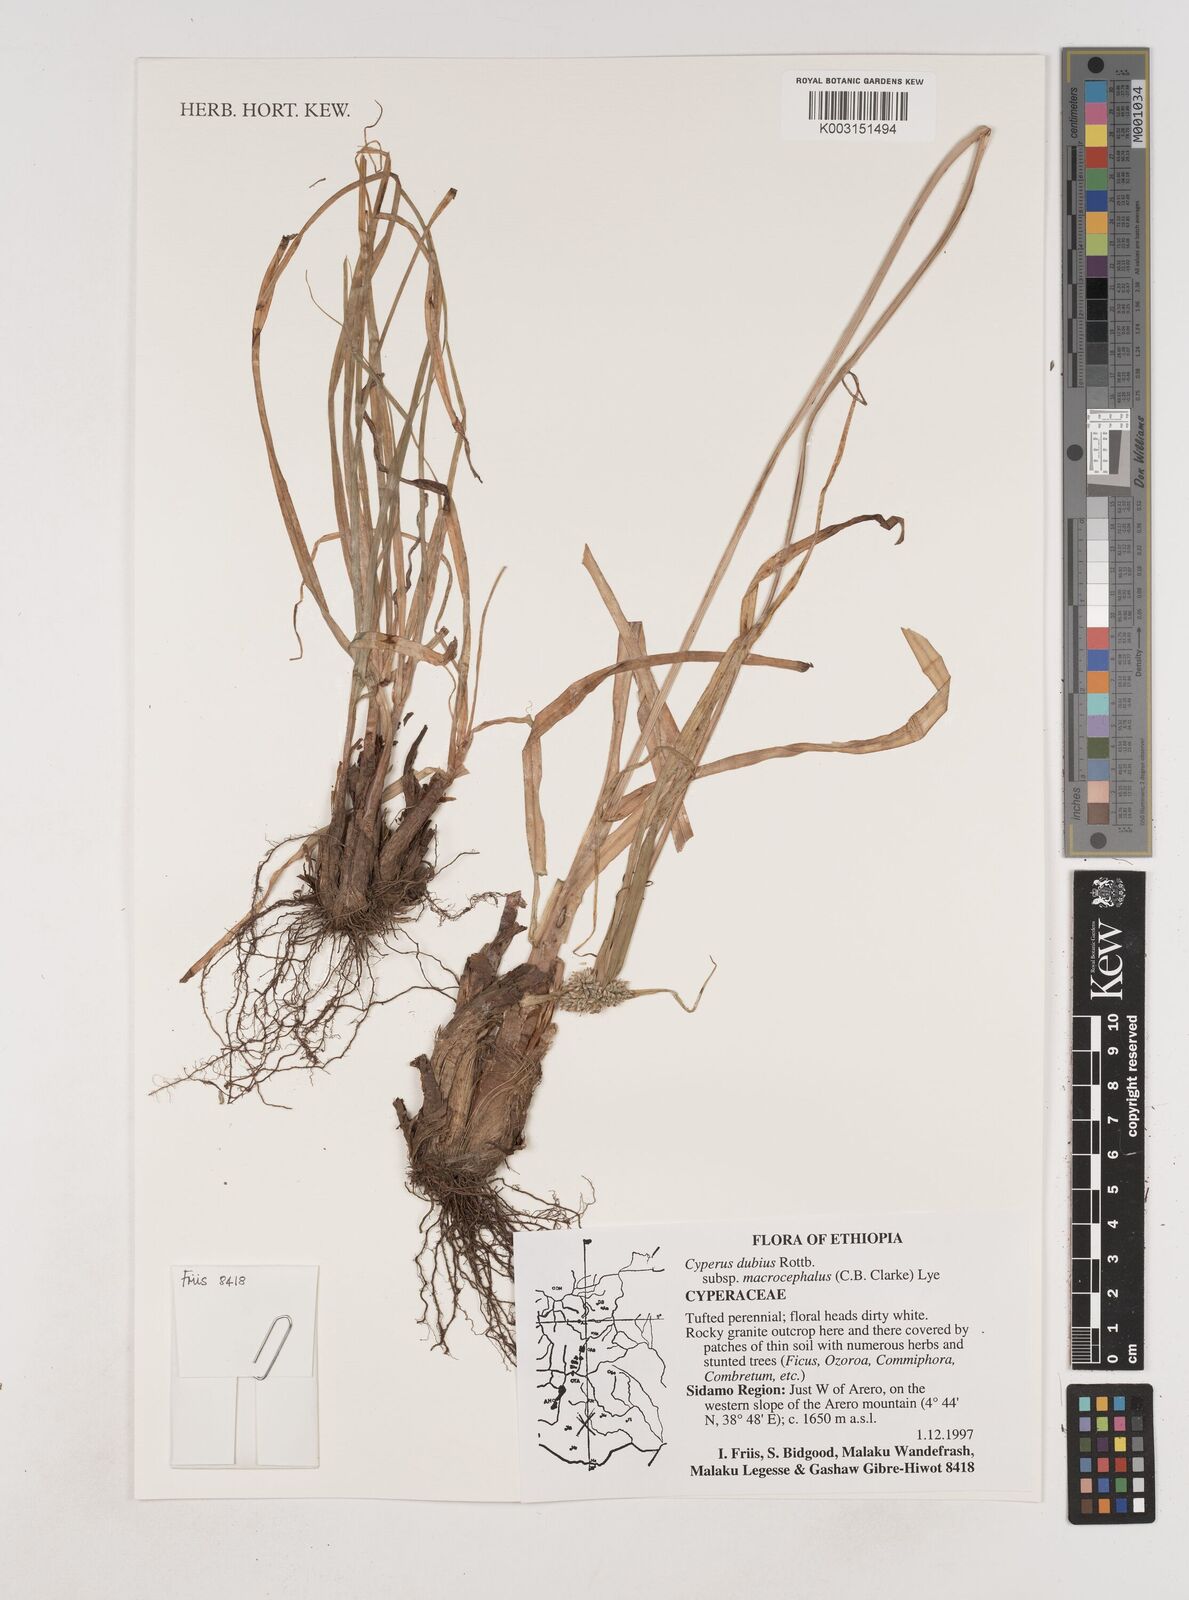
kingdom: Plantae
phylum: Tracheophyta
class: Liliopsida
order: Poales
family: Cyperaceae
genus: Cyperus
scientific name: Cyperus dubius
